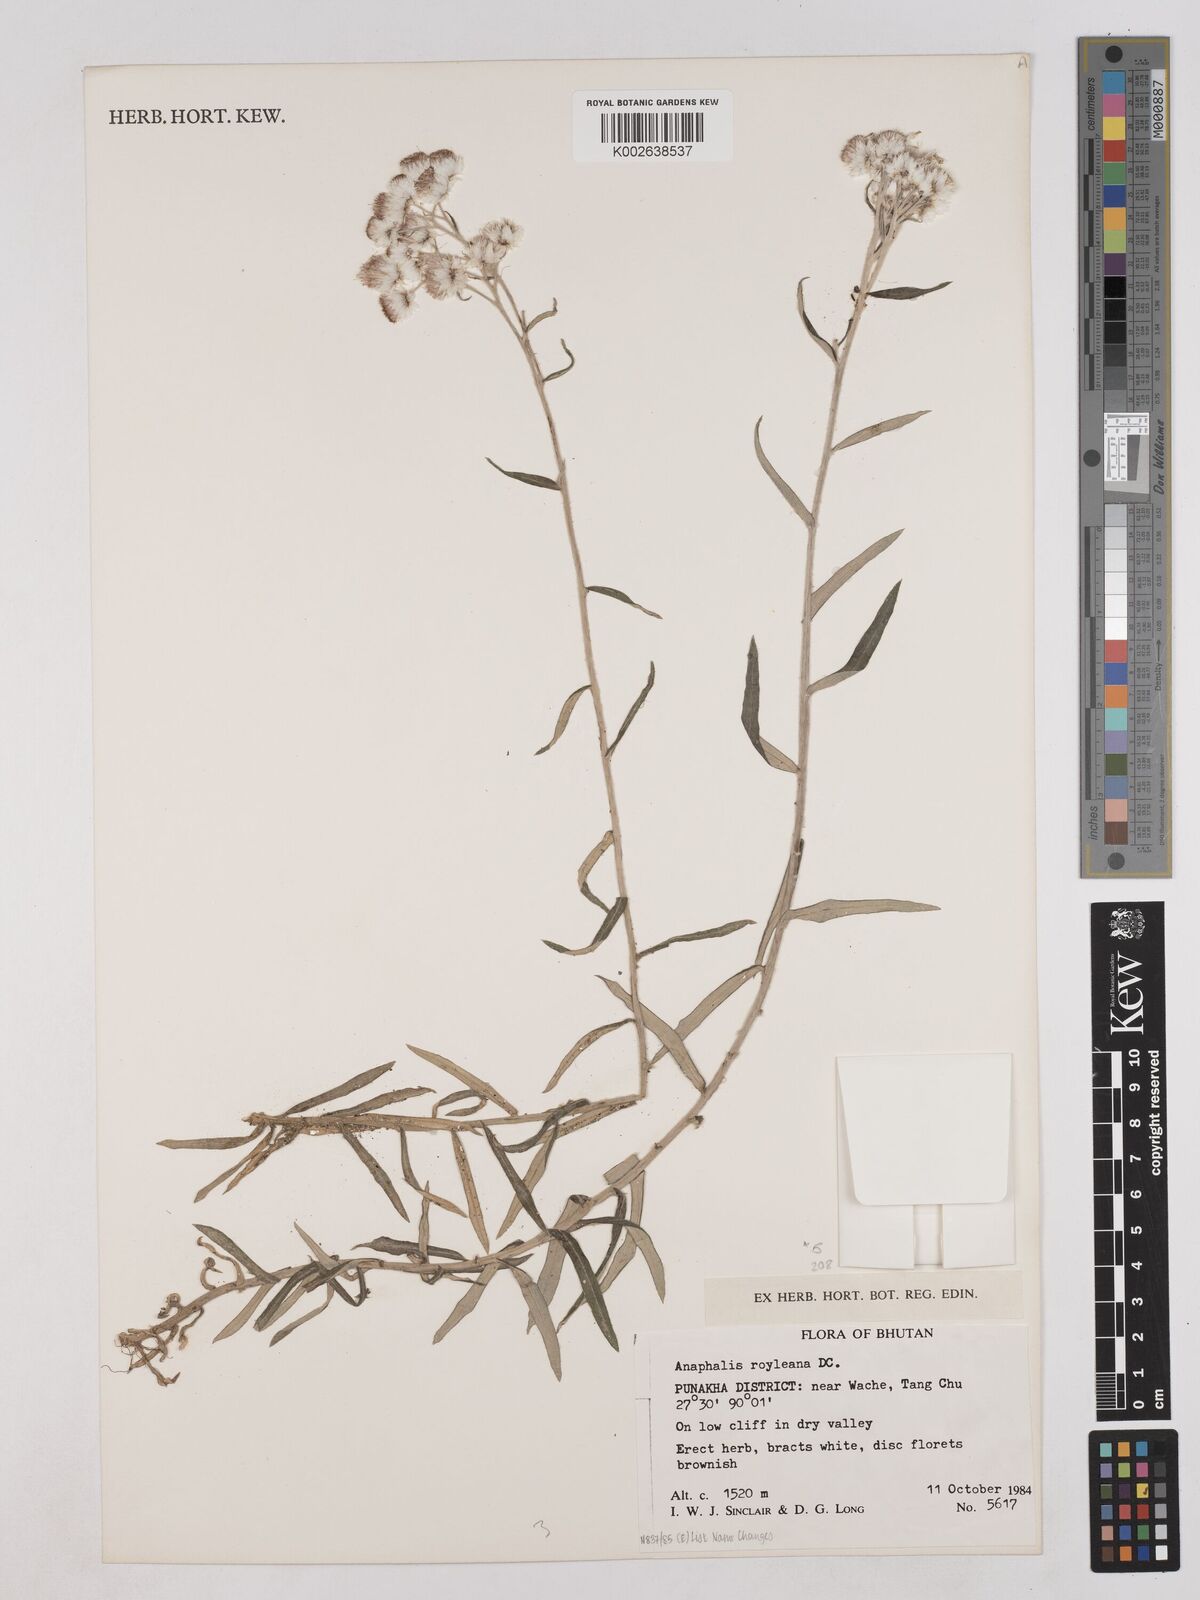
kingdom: Plantae
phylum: Tracheophyta
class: Magnoliopsida
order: Asterales
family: Asteraceae
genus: Anaphalis
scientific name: Anaphalis royleana
